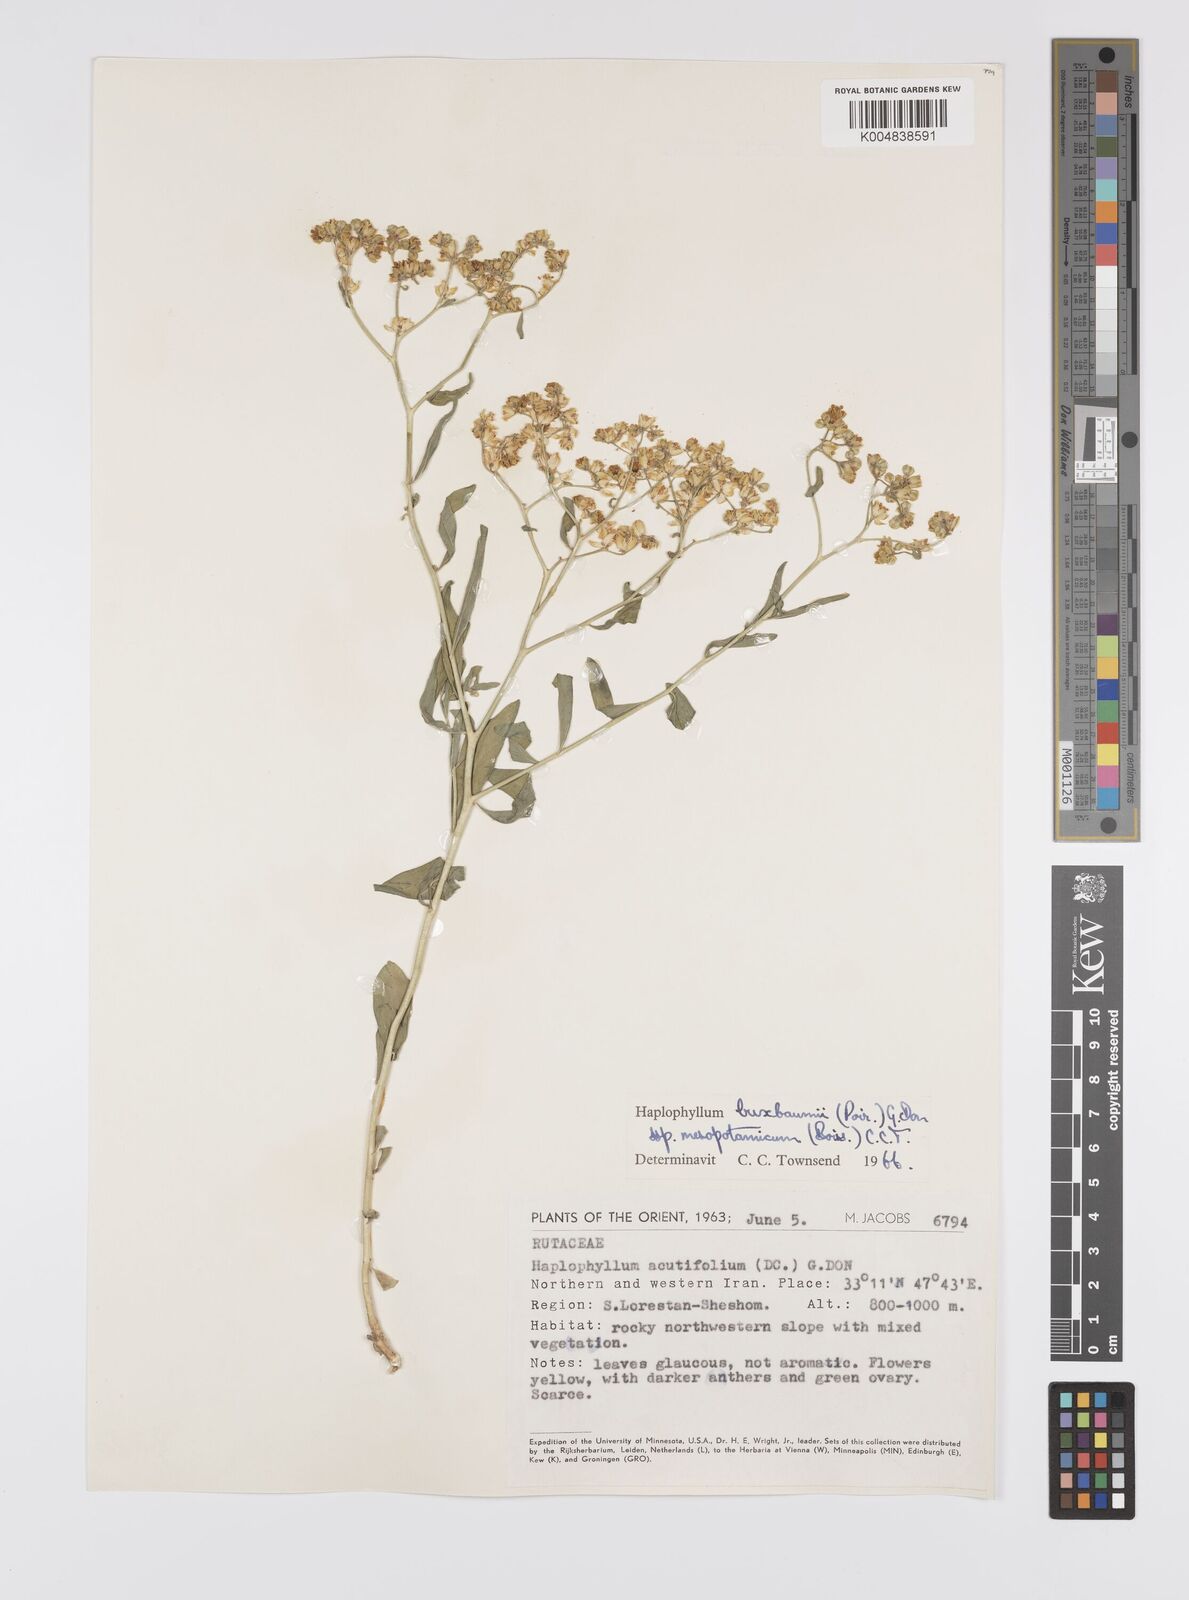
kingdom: Plantae
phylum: Tracheophyta
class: Magnoliopsida
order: Sapindales
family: Rutaceae
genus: Haplophyllum
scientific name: Haplophyllum buxbaumii
